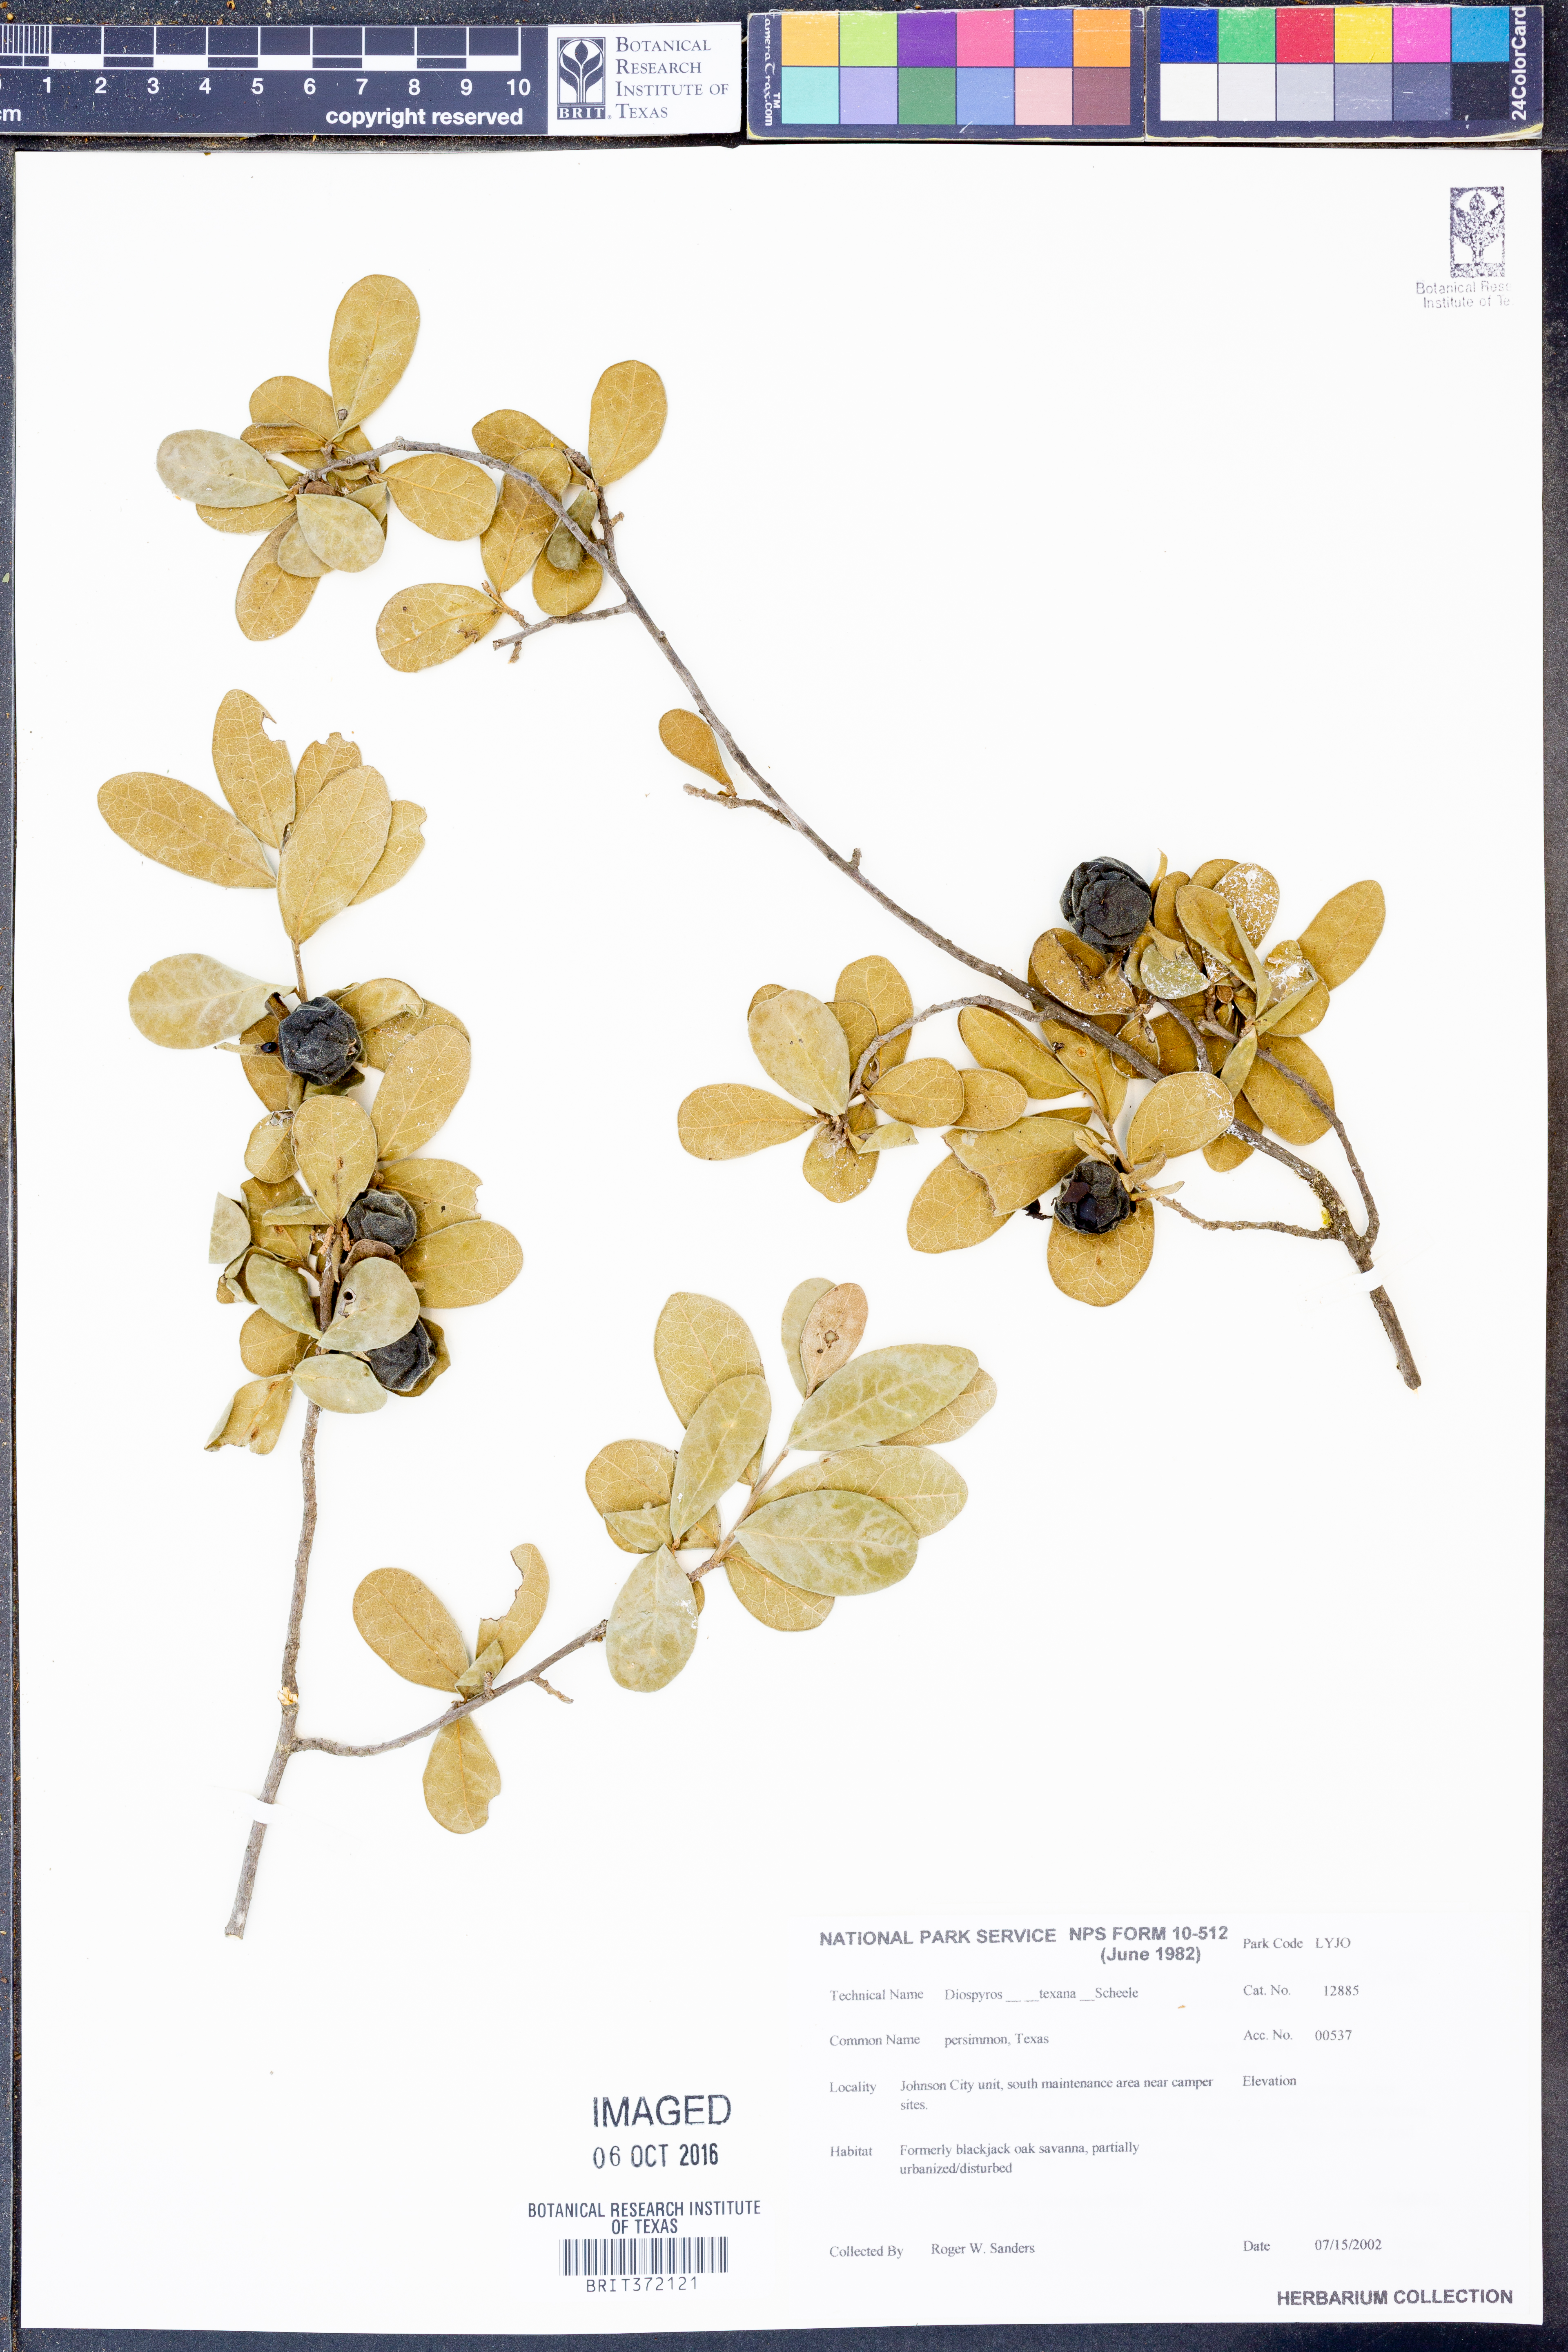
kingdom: Plantae
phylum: Tracheophyta
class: Magnoliopsida
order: Ericales
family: Ebenaceae
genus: Diospyros
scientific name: Diospyros texana
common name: Texas persimmon
